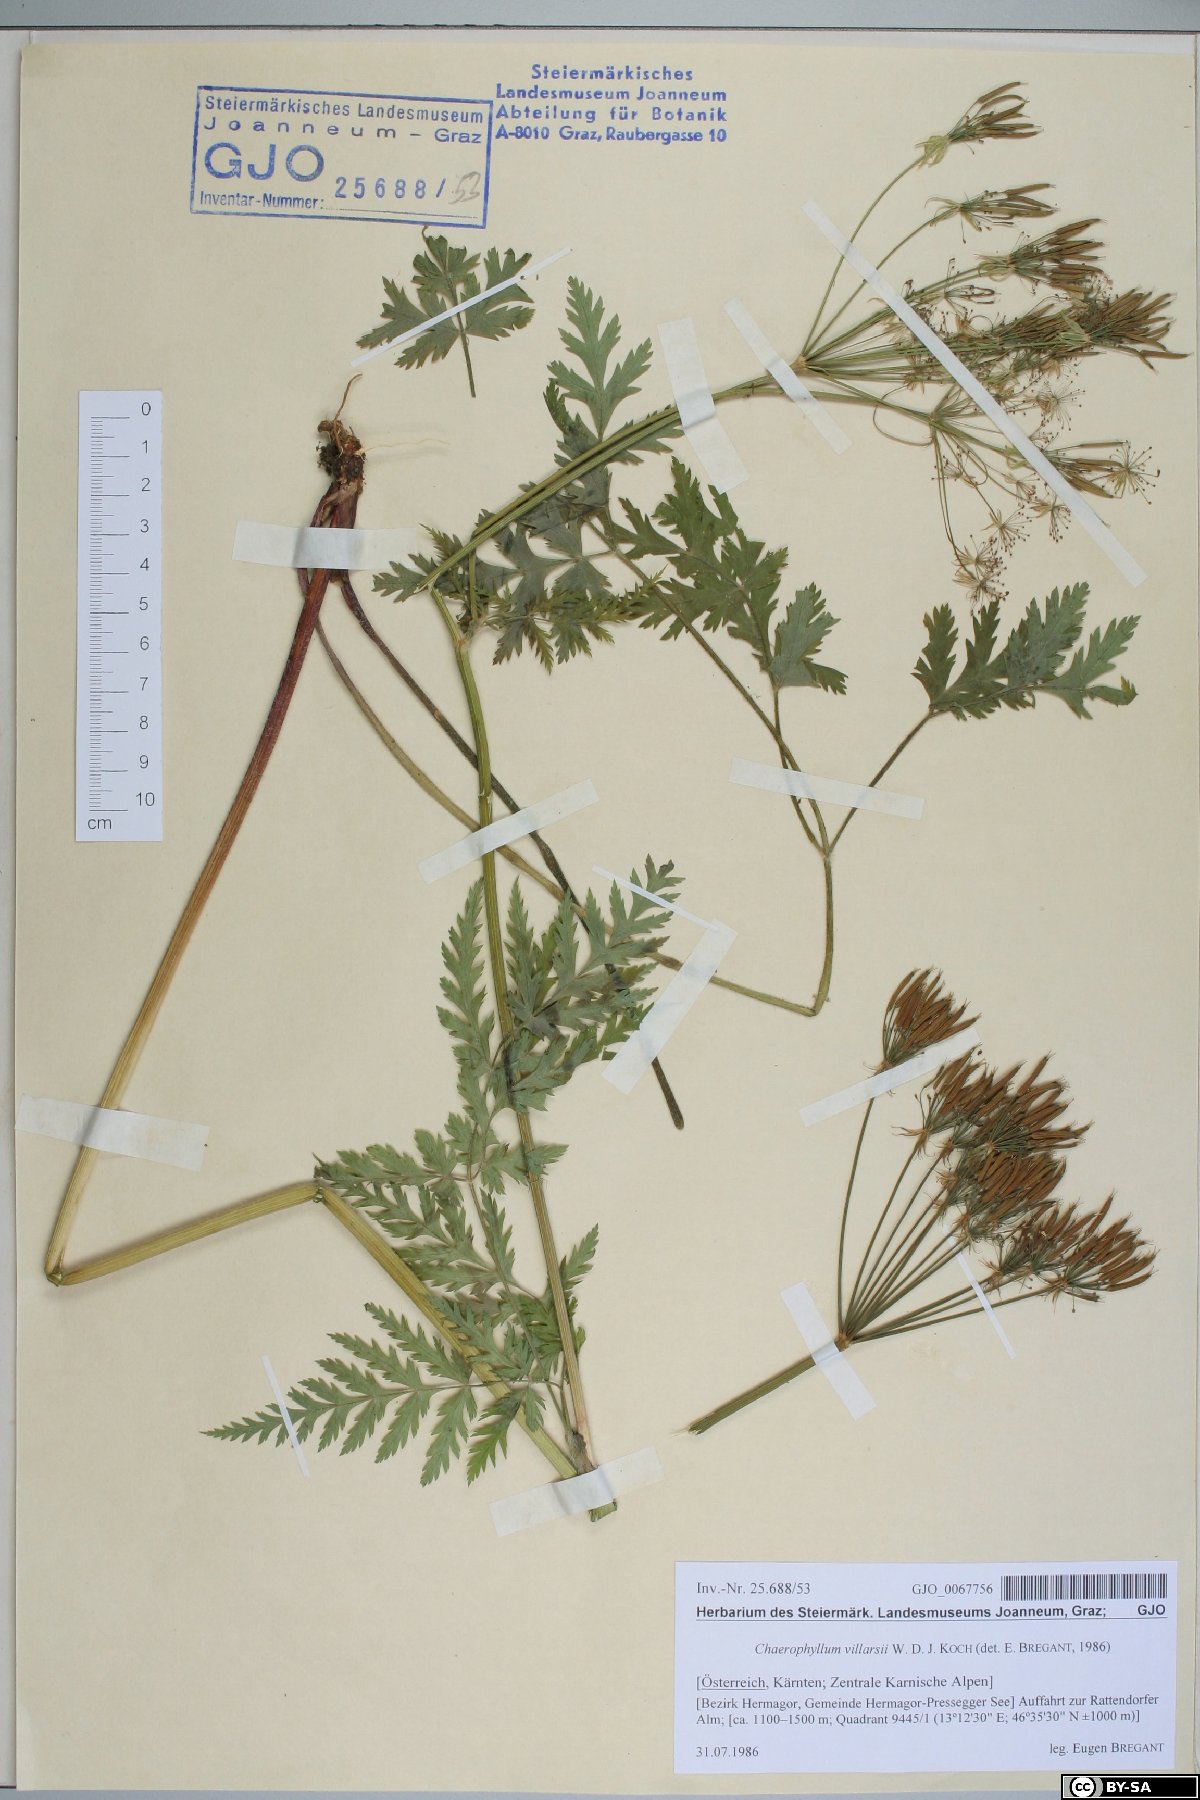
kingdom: Plantae
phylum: Tracheophyta
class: Magnoliopsida
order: Apiales
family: Apiaceae
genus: Chaerophyllum
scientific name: Chaerophyllum villarsii
